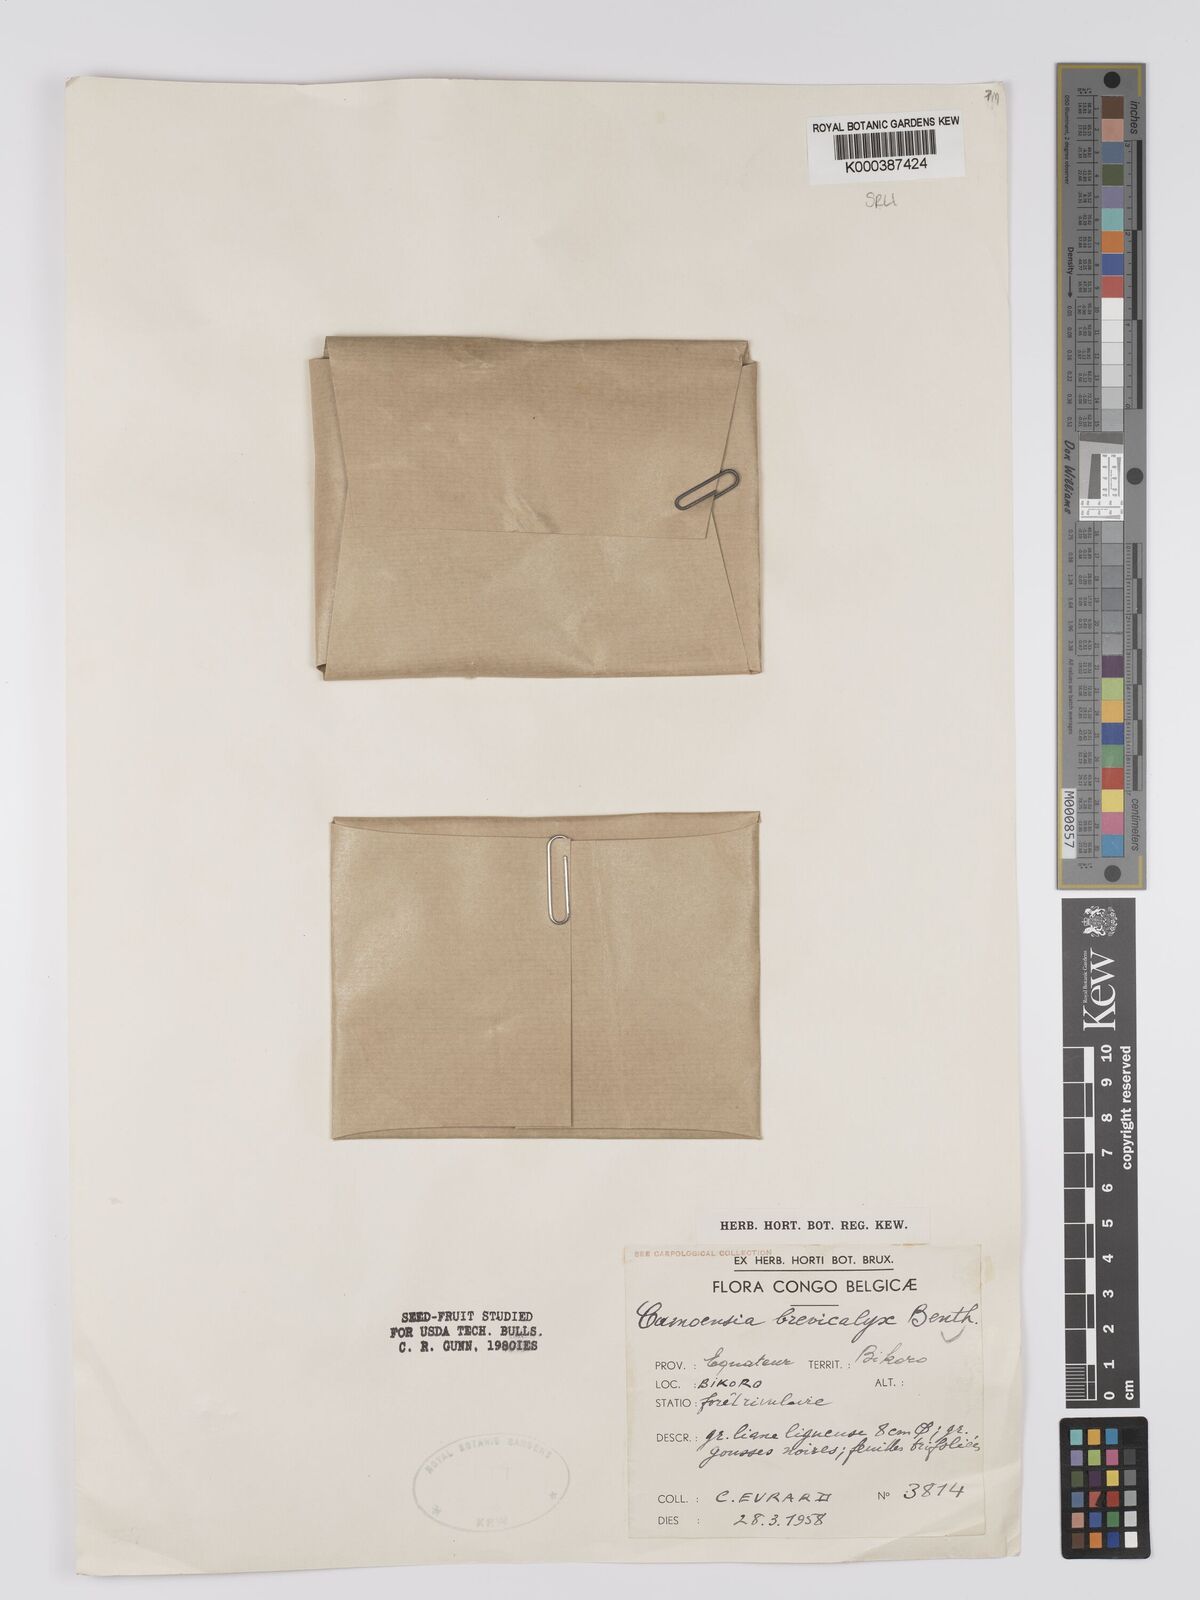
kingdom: Plantae
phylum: Tracheophyta
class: Magnoliopsida
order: Fabales
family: Fabaceae
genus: Camoensia
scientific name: Camoensia brevicalyx
